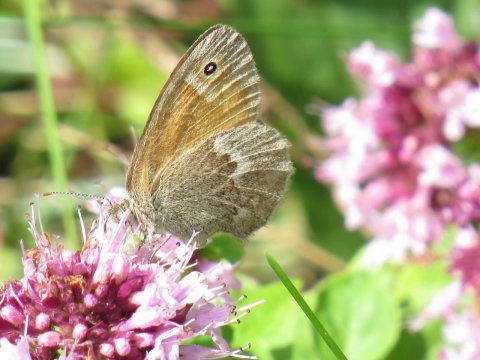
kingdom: Animalia
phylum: Arthropoda
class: Insecta
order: Lepidoptera
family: Nymphalidae
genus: Coenonympha
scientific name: Coenonympha tullia
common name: Large Heath
